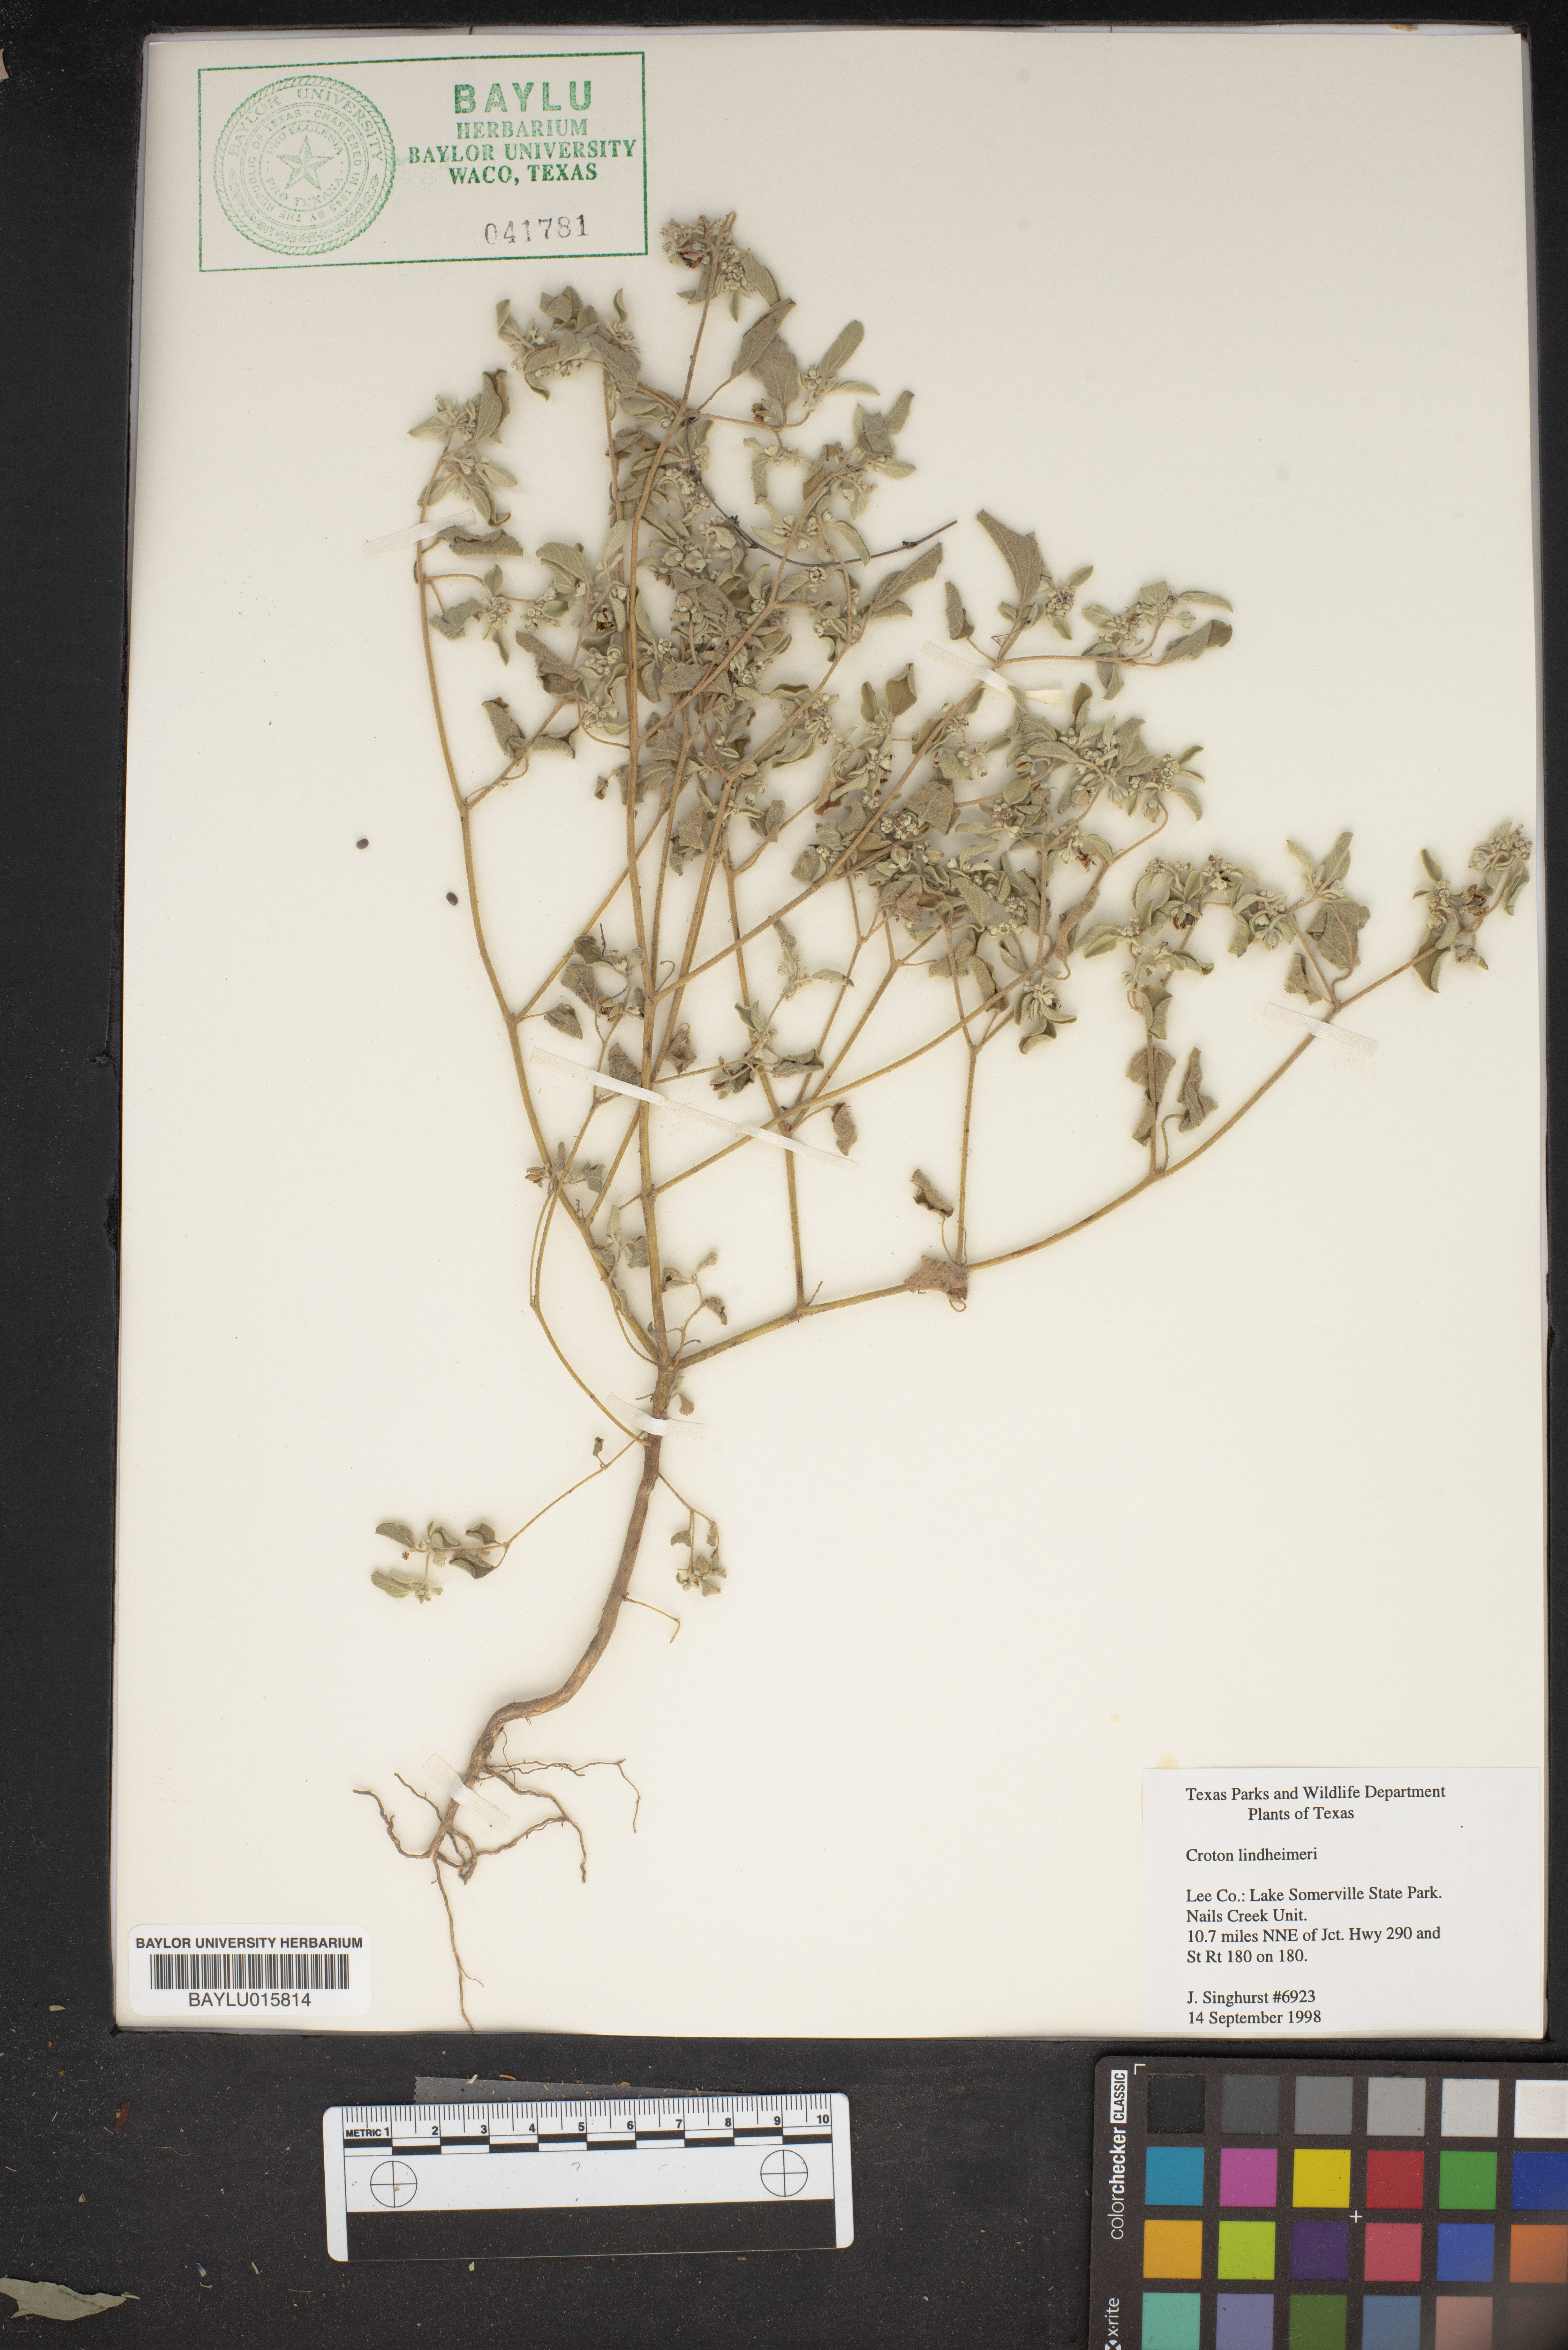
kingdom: Plantae
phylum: Tracheophyta
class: Magnoliopsida
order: Malpighiales
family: Euphorbiaceae
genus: Croton
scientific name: Croton lindheimeri
